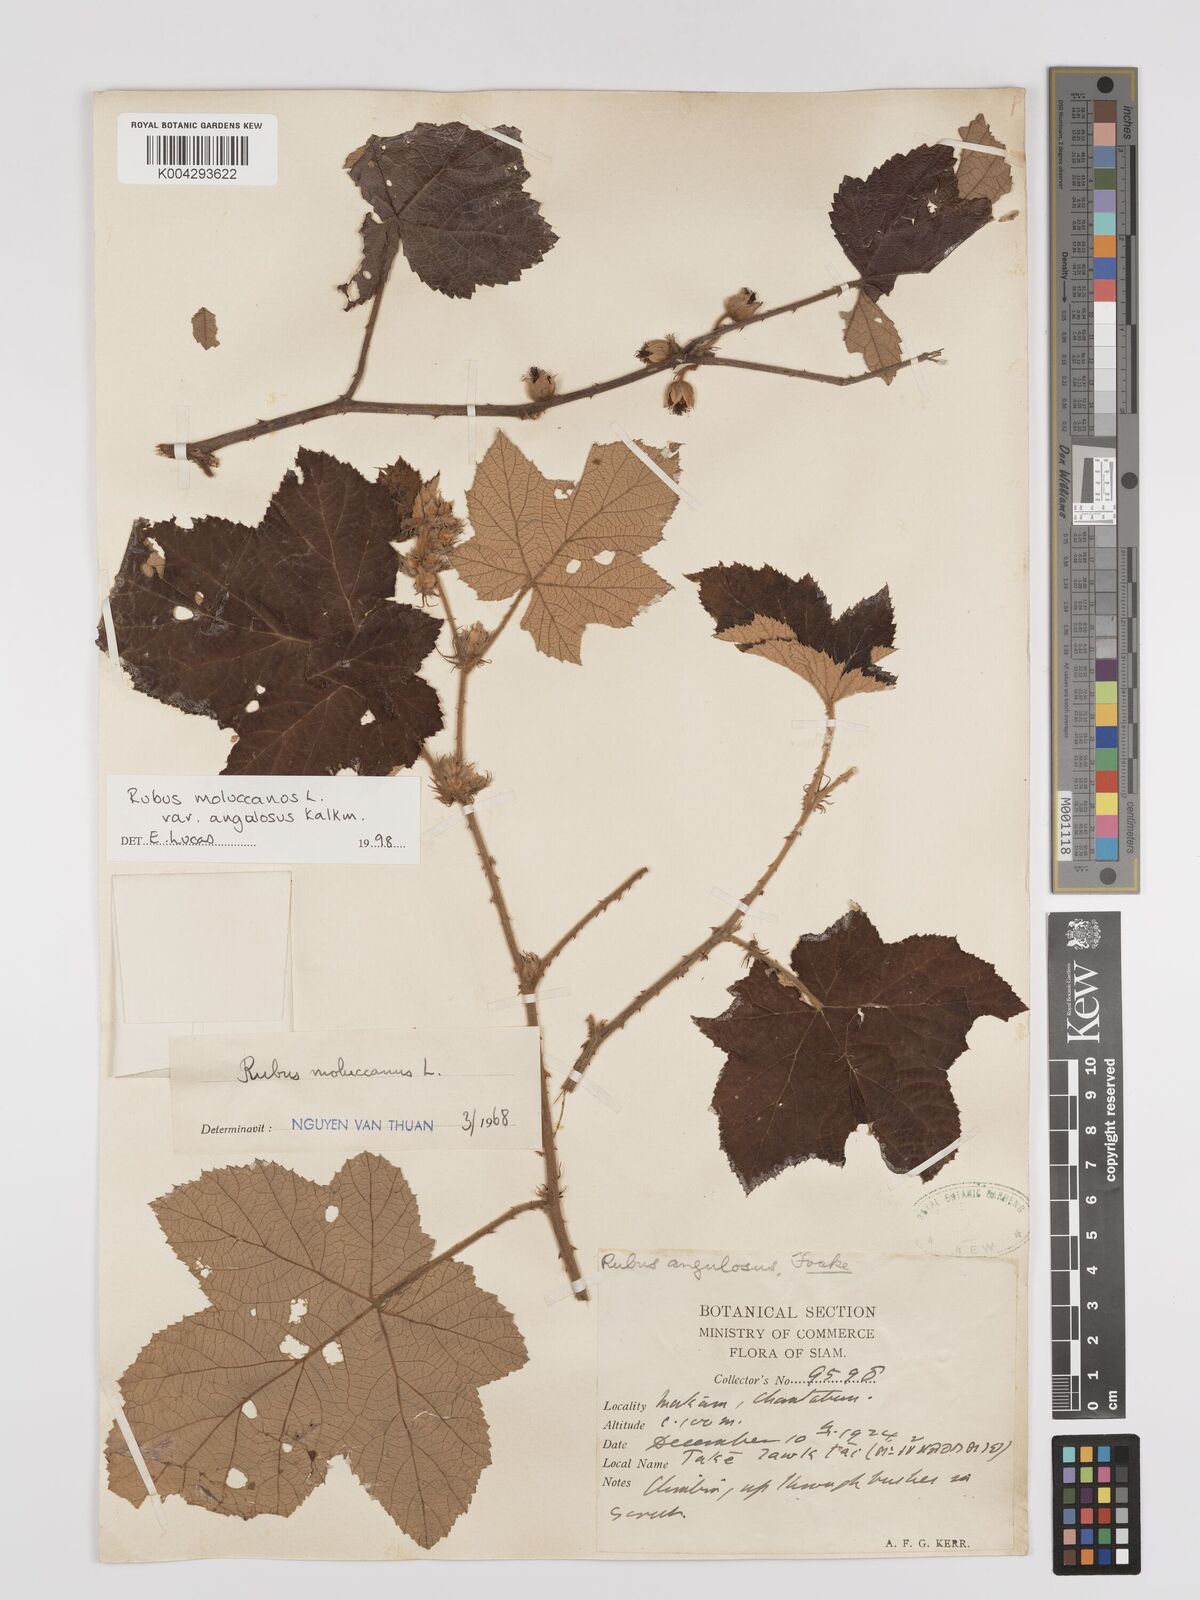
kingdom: Plantae
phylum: Tracheophyta
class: Magnoliopsida
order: Rosales
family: Rosaceae
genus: Rubus
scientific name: Rubus moluccanus
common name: Wild raspberry
